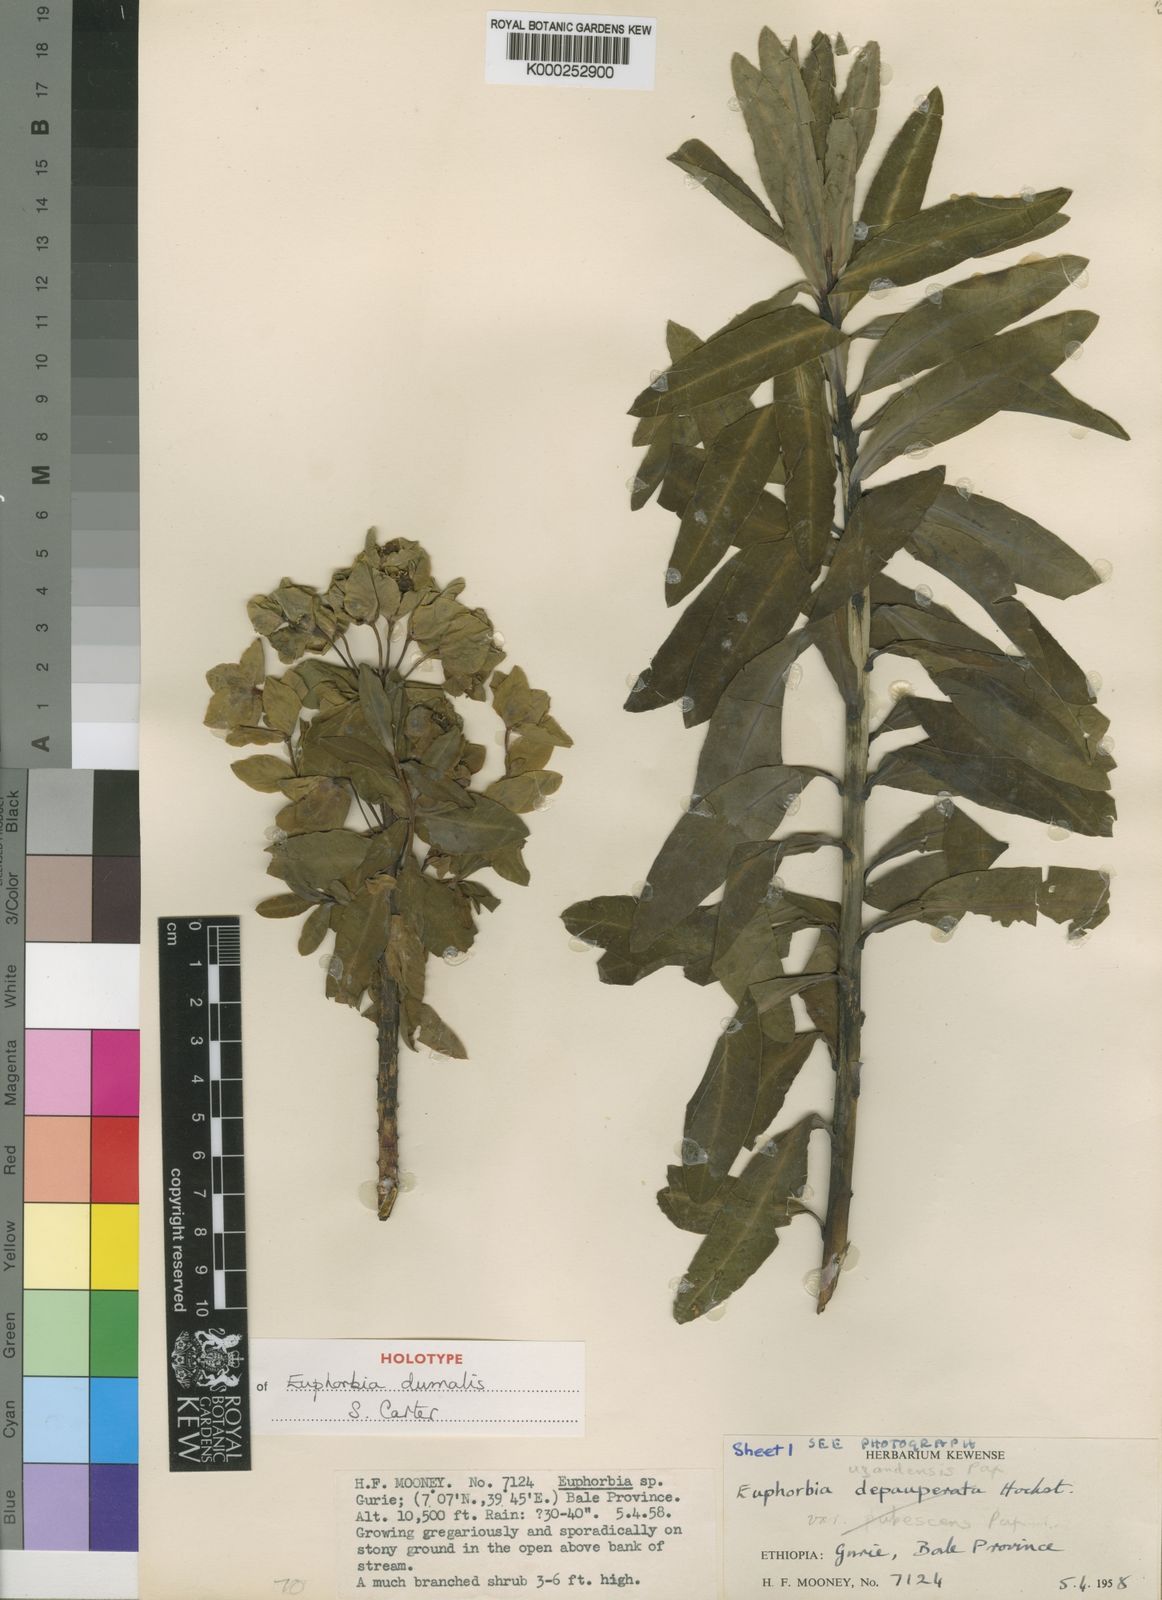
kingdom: Plantae
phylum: Tracheophyta
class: Magnoliopsida
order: Malpighiales
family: Euphorbiaceae
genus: Euphorbia
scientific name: Euphorbia dumalis
